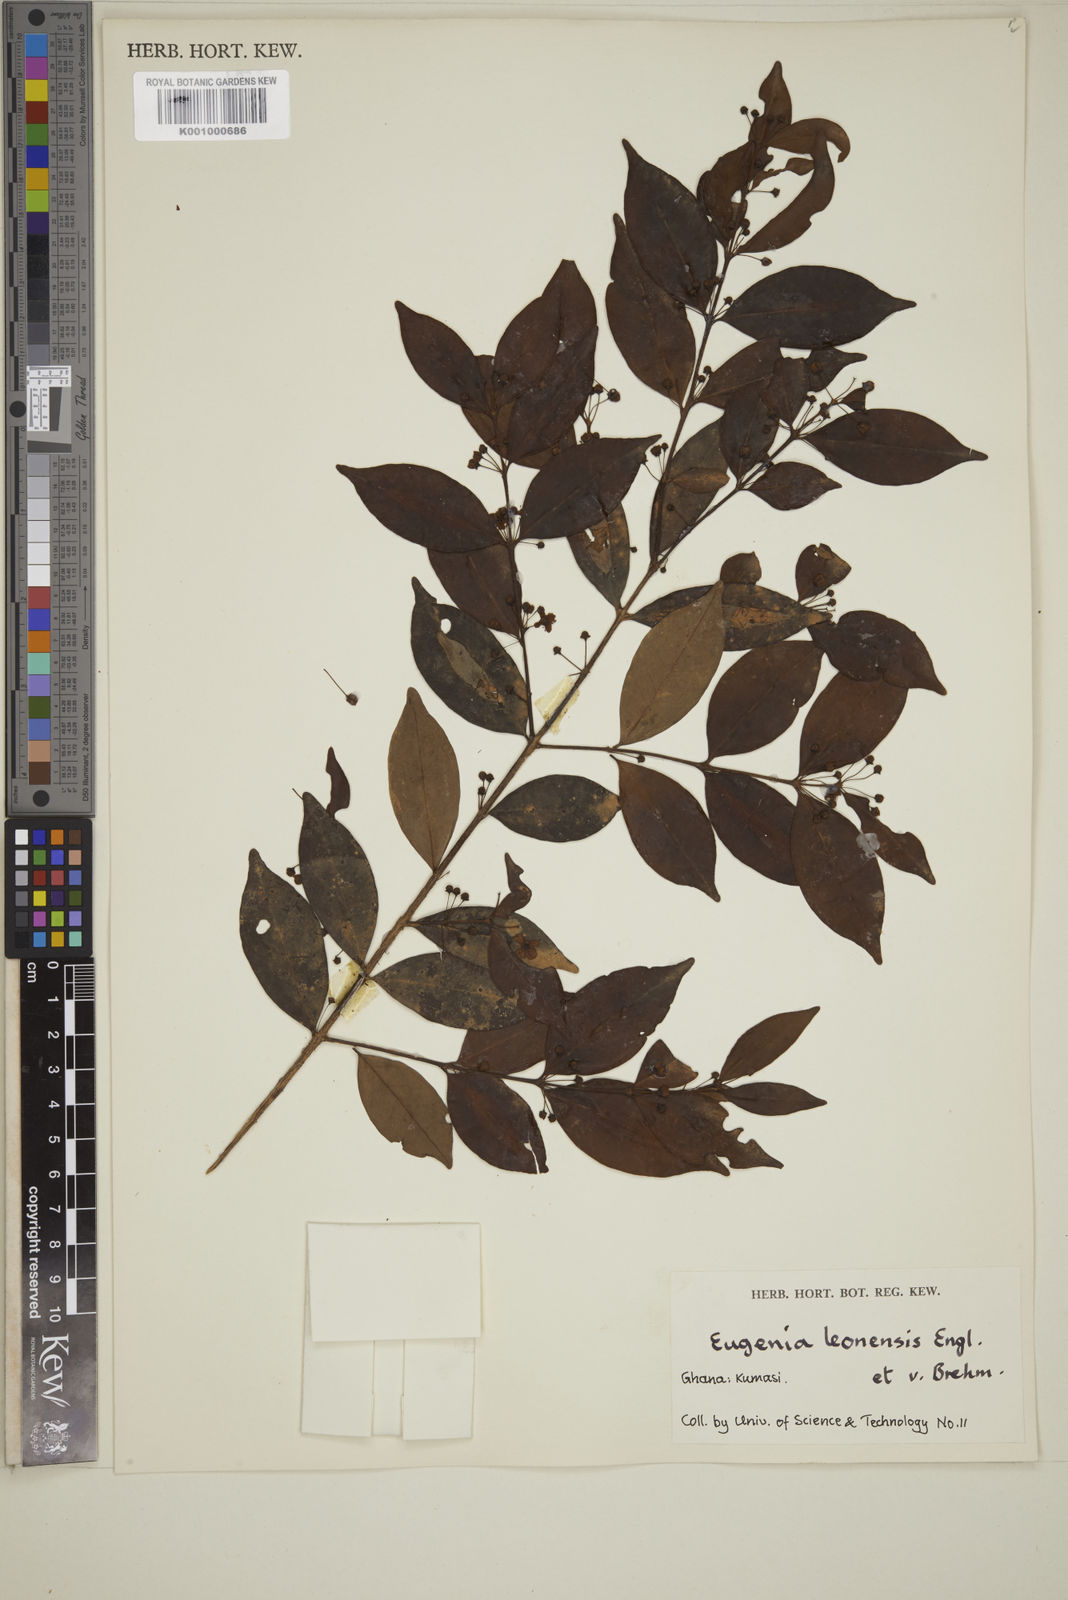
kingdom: Plantae
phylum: Tracheophyta
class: Magnoliopsida
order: Myrtales
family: Myrtaceae
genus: Eugenia
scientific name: Eugenia leonensis
